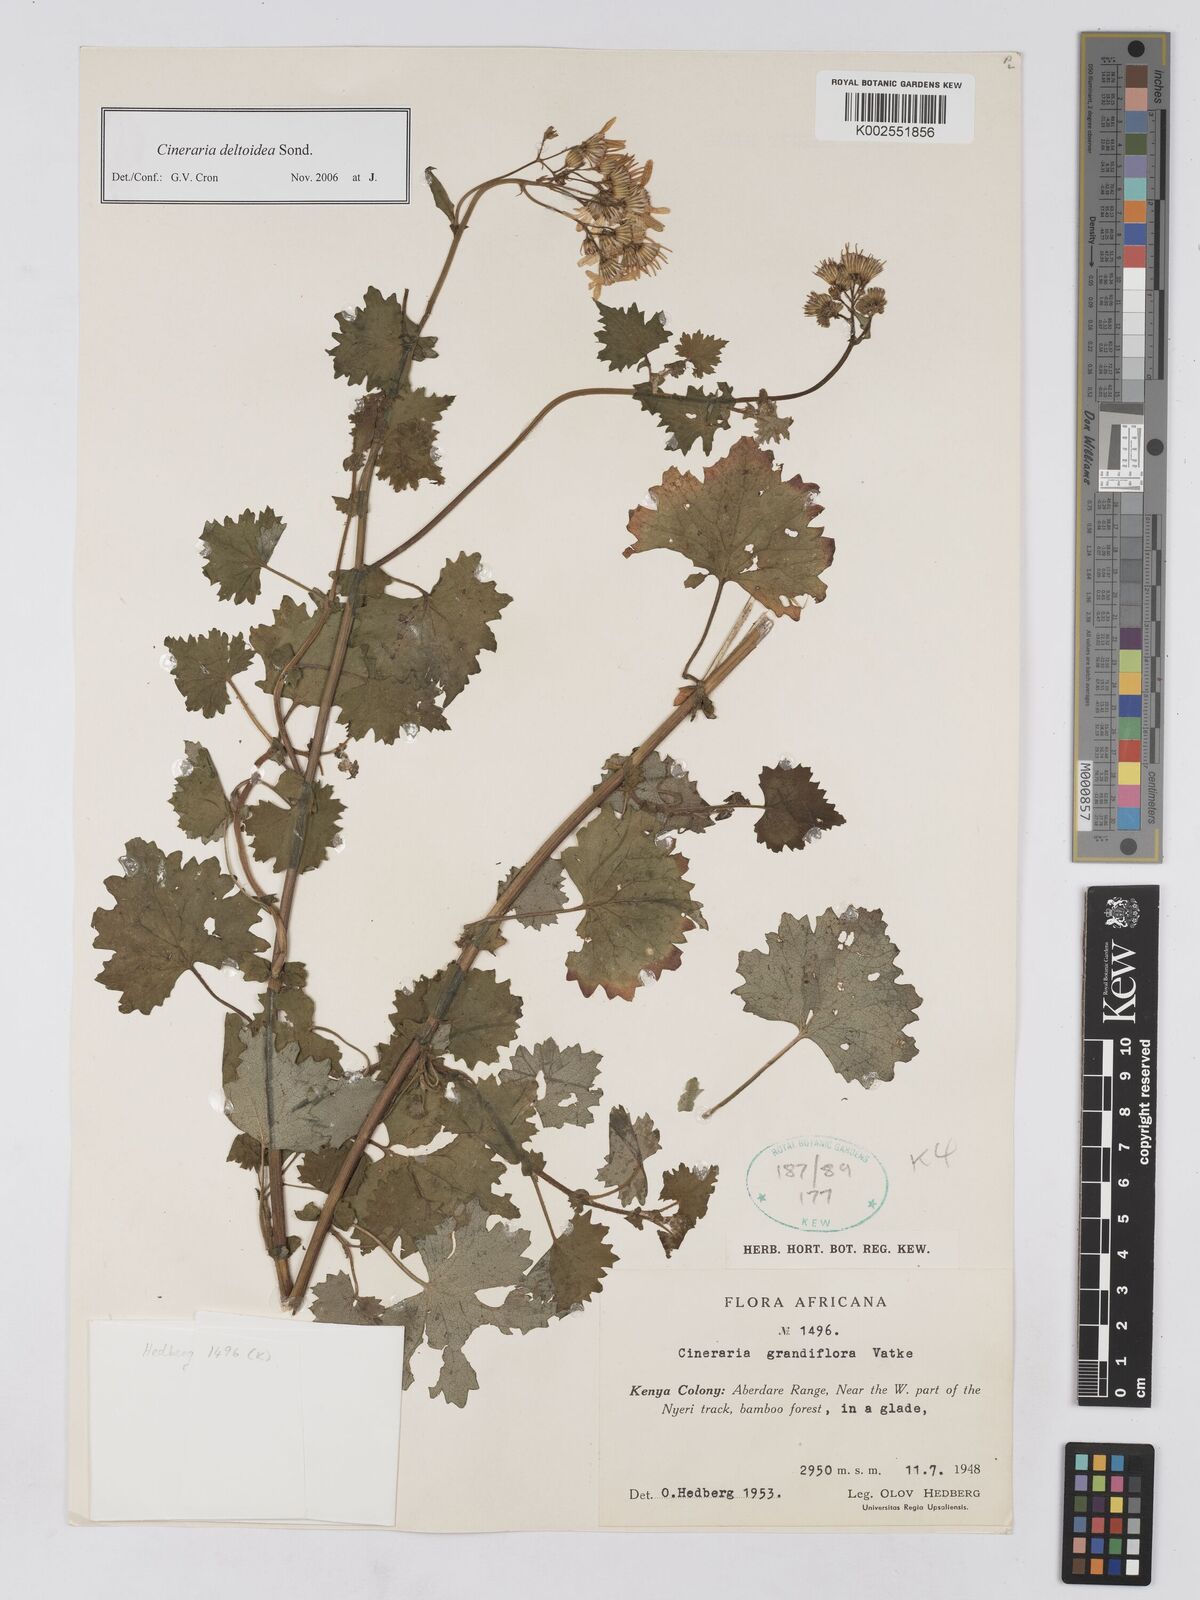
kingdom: Plantae
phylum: Tracheophyta
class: Magnoliopsida
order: Asterales
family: Asteraceae
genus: Cineraria
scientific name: Cineraria deltoidea
